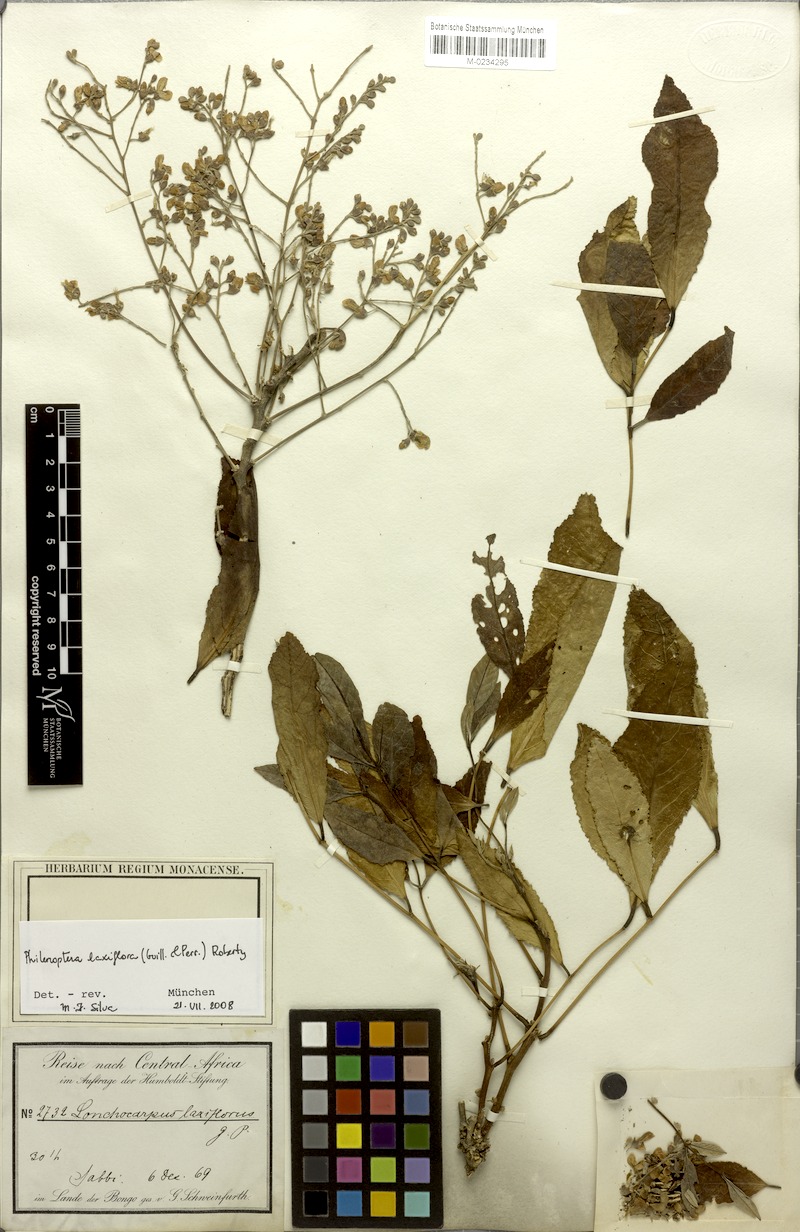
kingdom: Plantae
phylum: Tracheophyta
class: Magnoliopsida
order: Fabales
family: Fabaceae
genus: Philenoptera
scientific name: Philenoptera laxiflora
